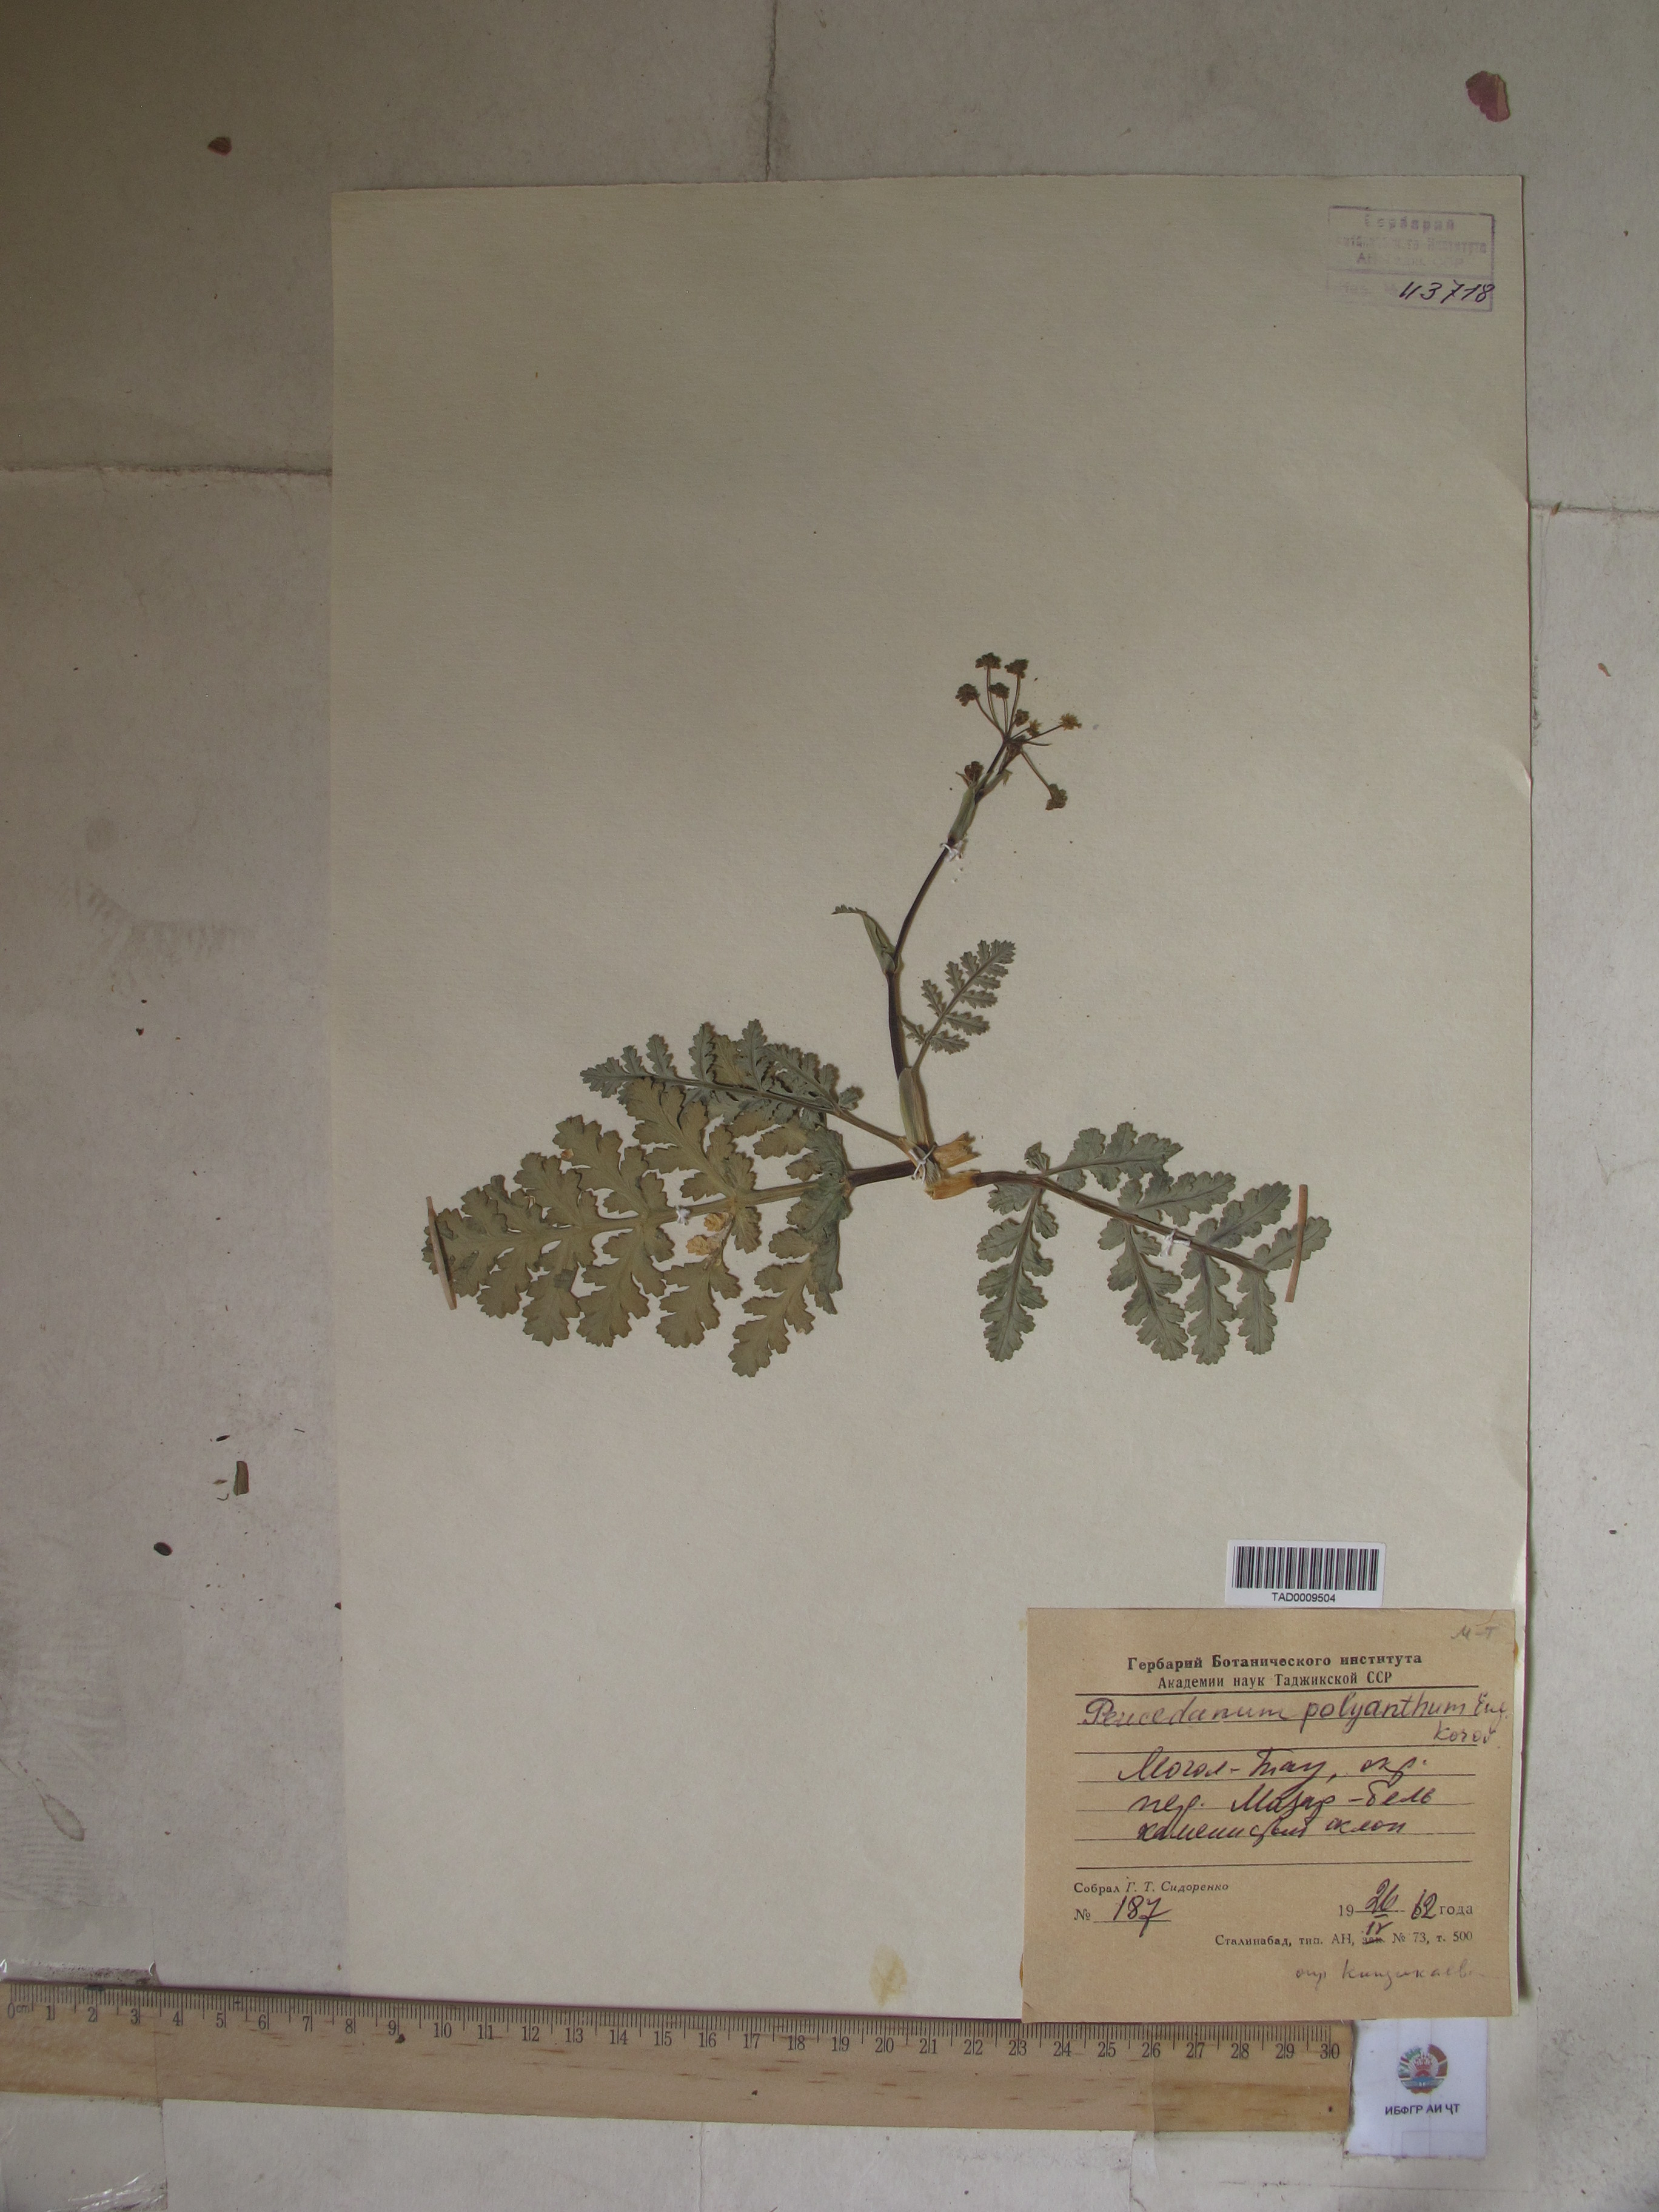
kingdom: Plantae
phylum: Tracheophyta
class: Magnoliopsida
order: Apiales
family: Apiaceae
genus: Fergania
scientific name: Fergania polyantha
